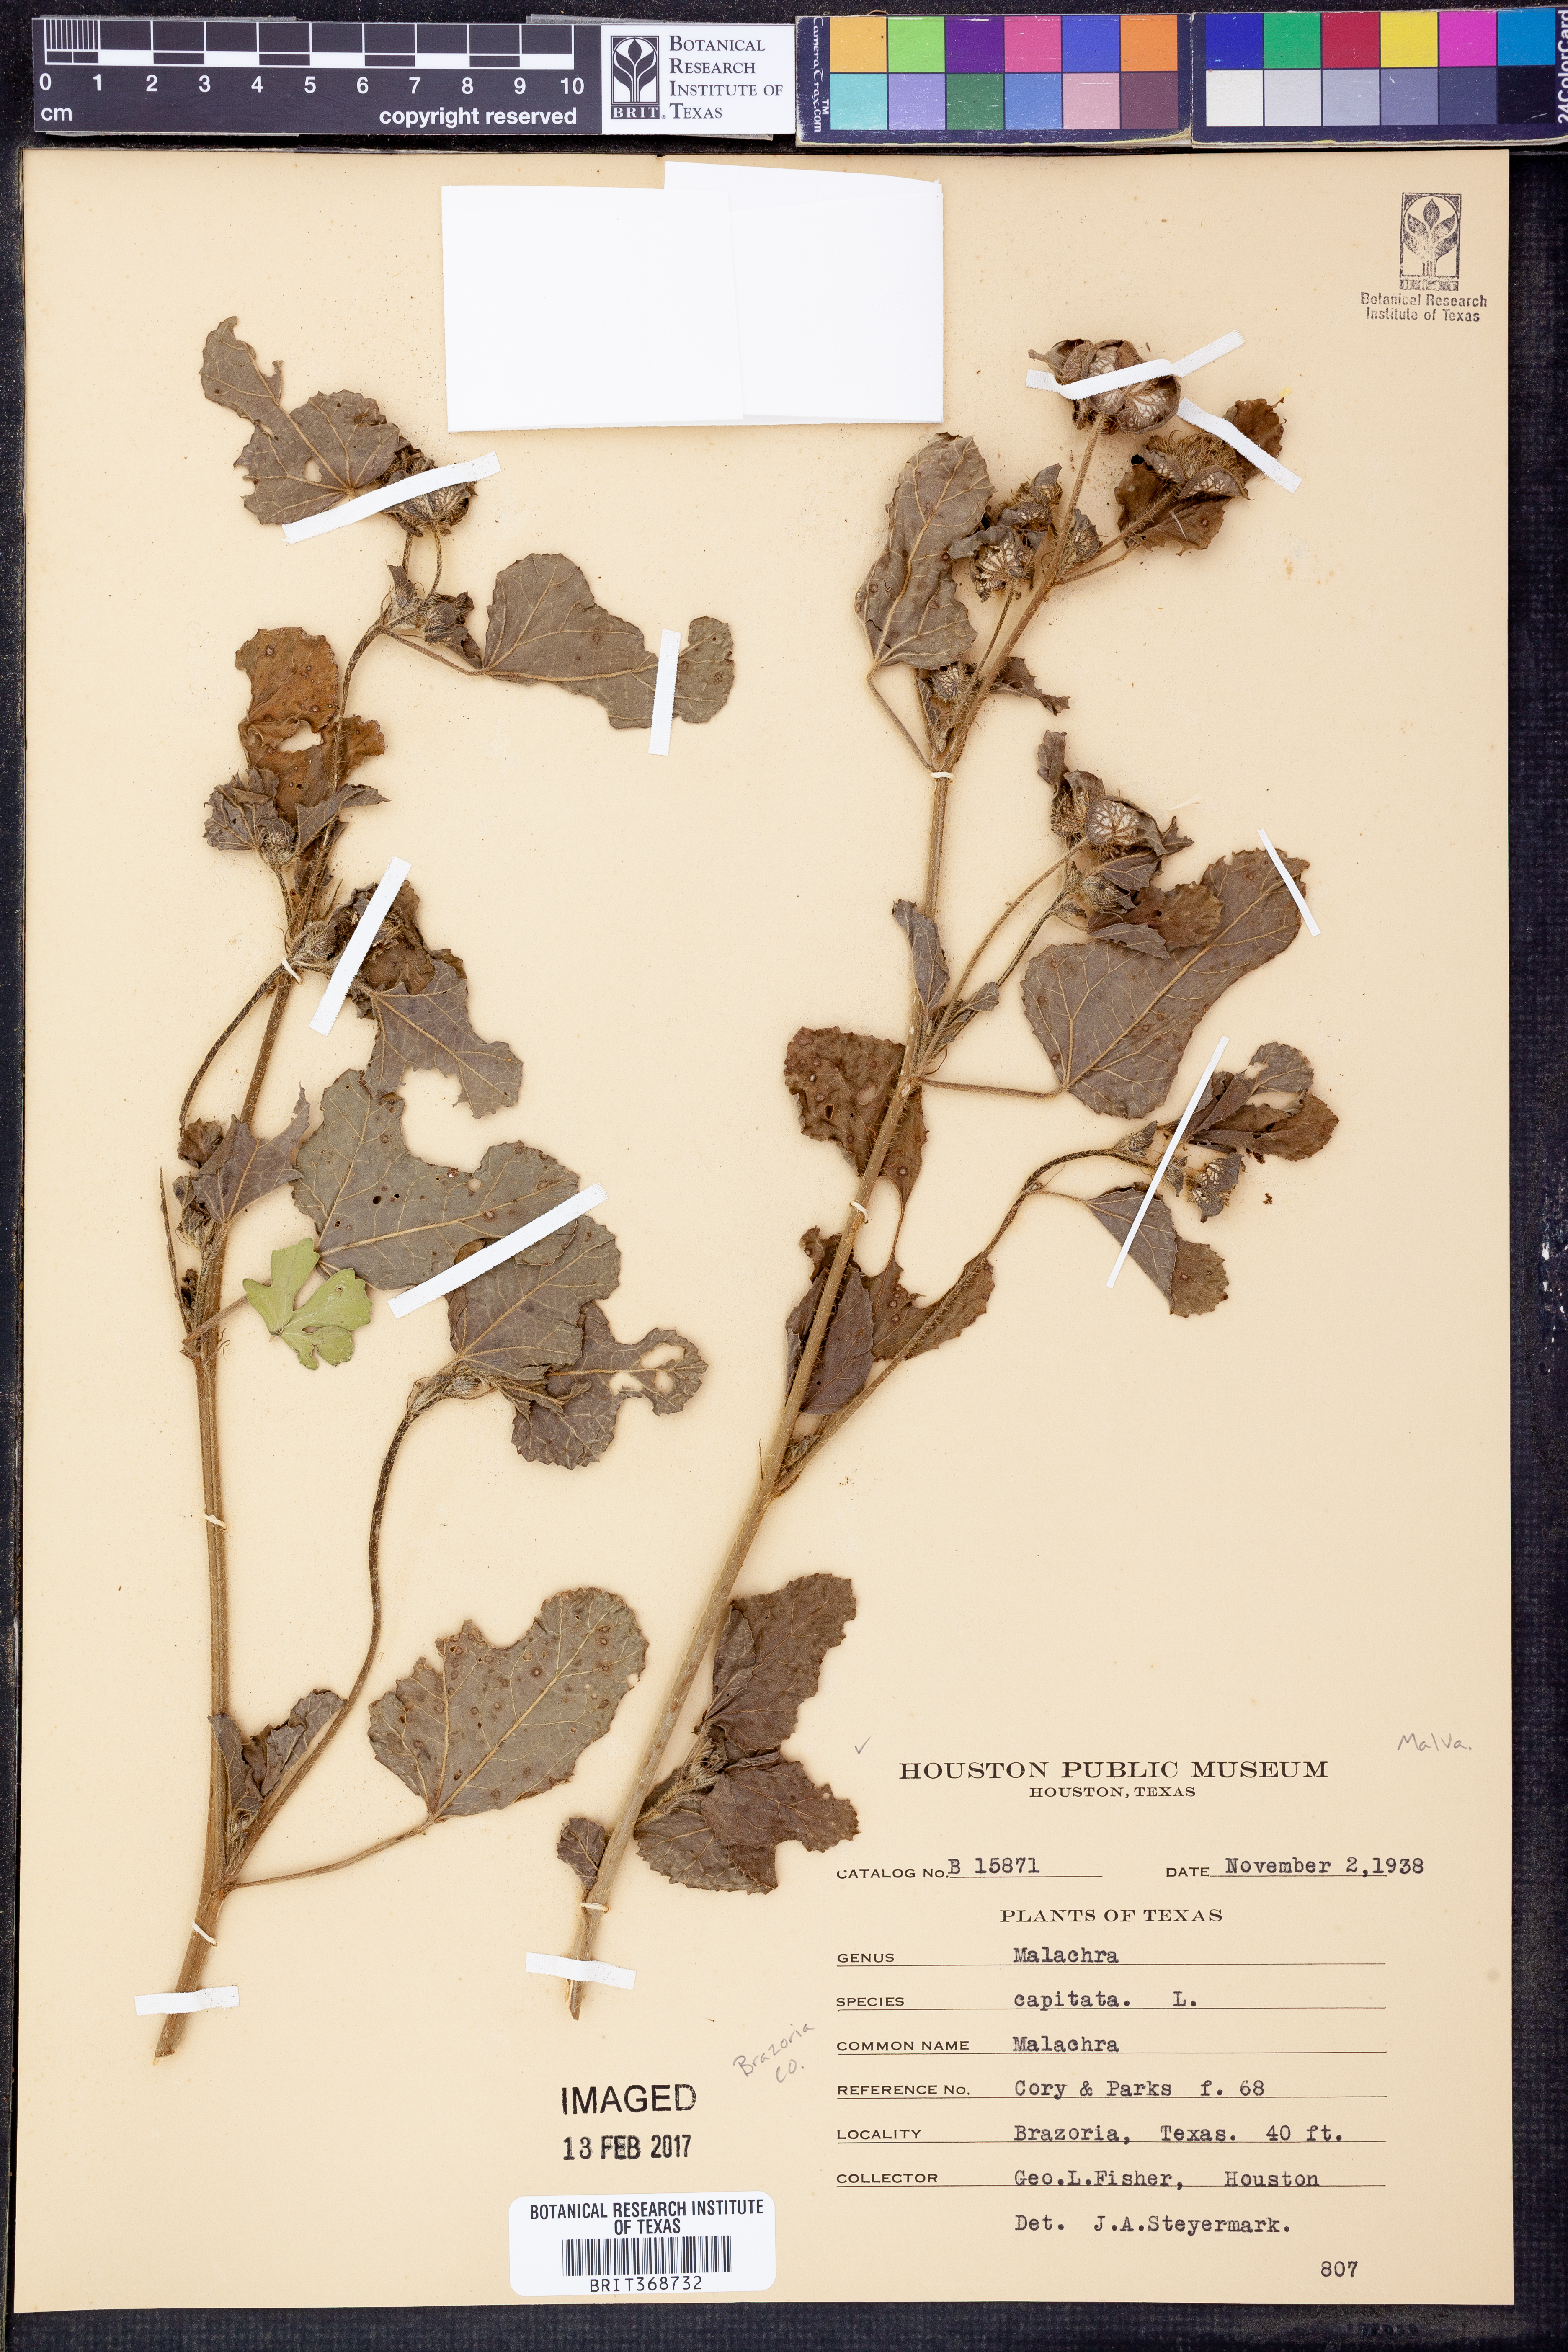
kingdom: Plantae
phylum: Tracheophyta
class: Magnoliopsida
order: Malvales
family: Malvaceae
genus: Malachra
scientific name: Malachra capitata
